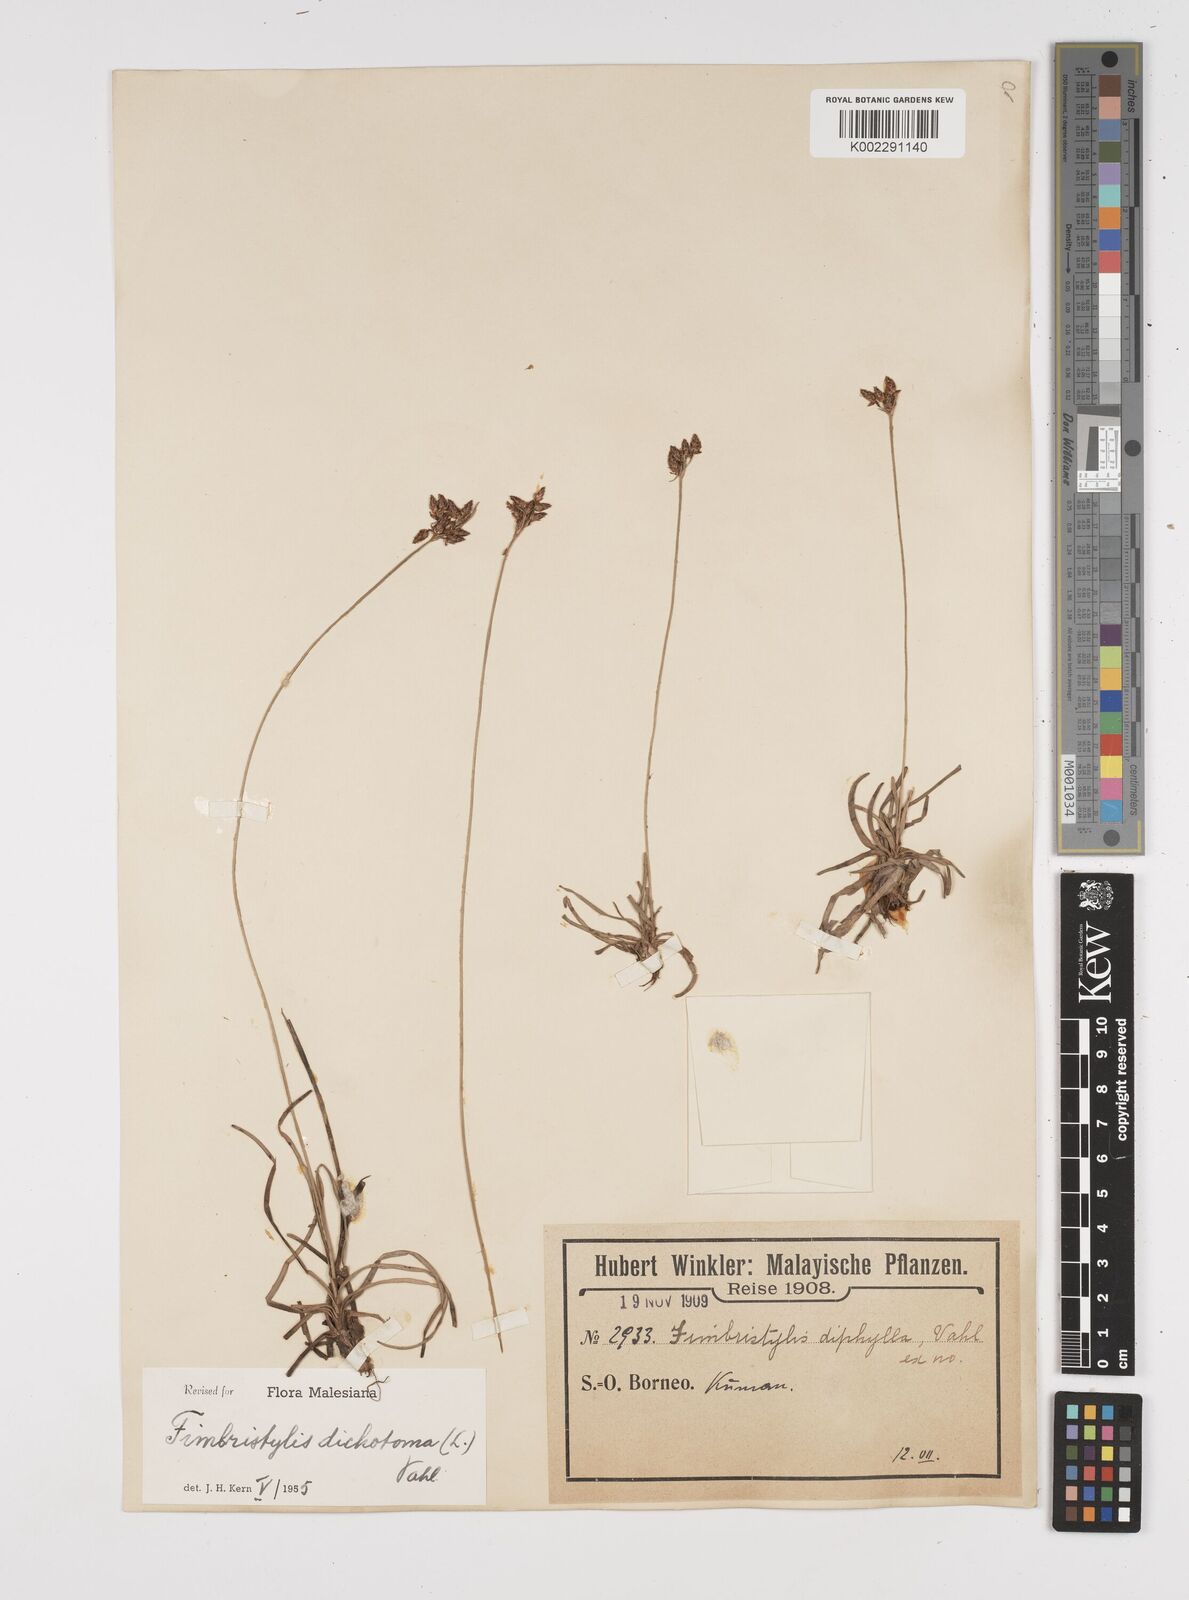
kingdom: Plantae
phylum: Tracheophyta
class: Liliopsida
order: Poales
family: Cyperaceae
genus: Fimbristylis
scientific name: Fimbristylis dichotoma
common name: Forked fimbry
